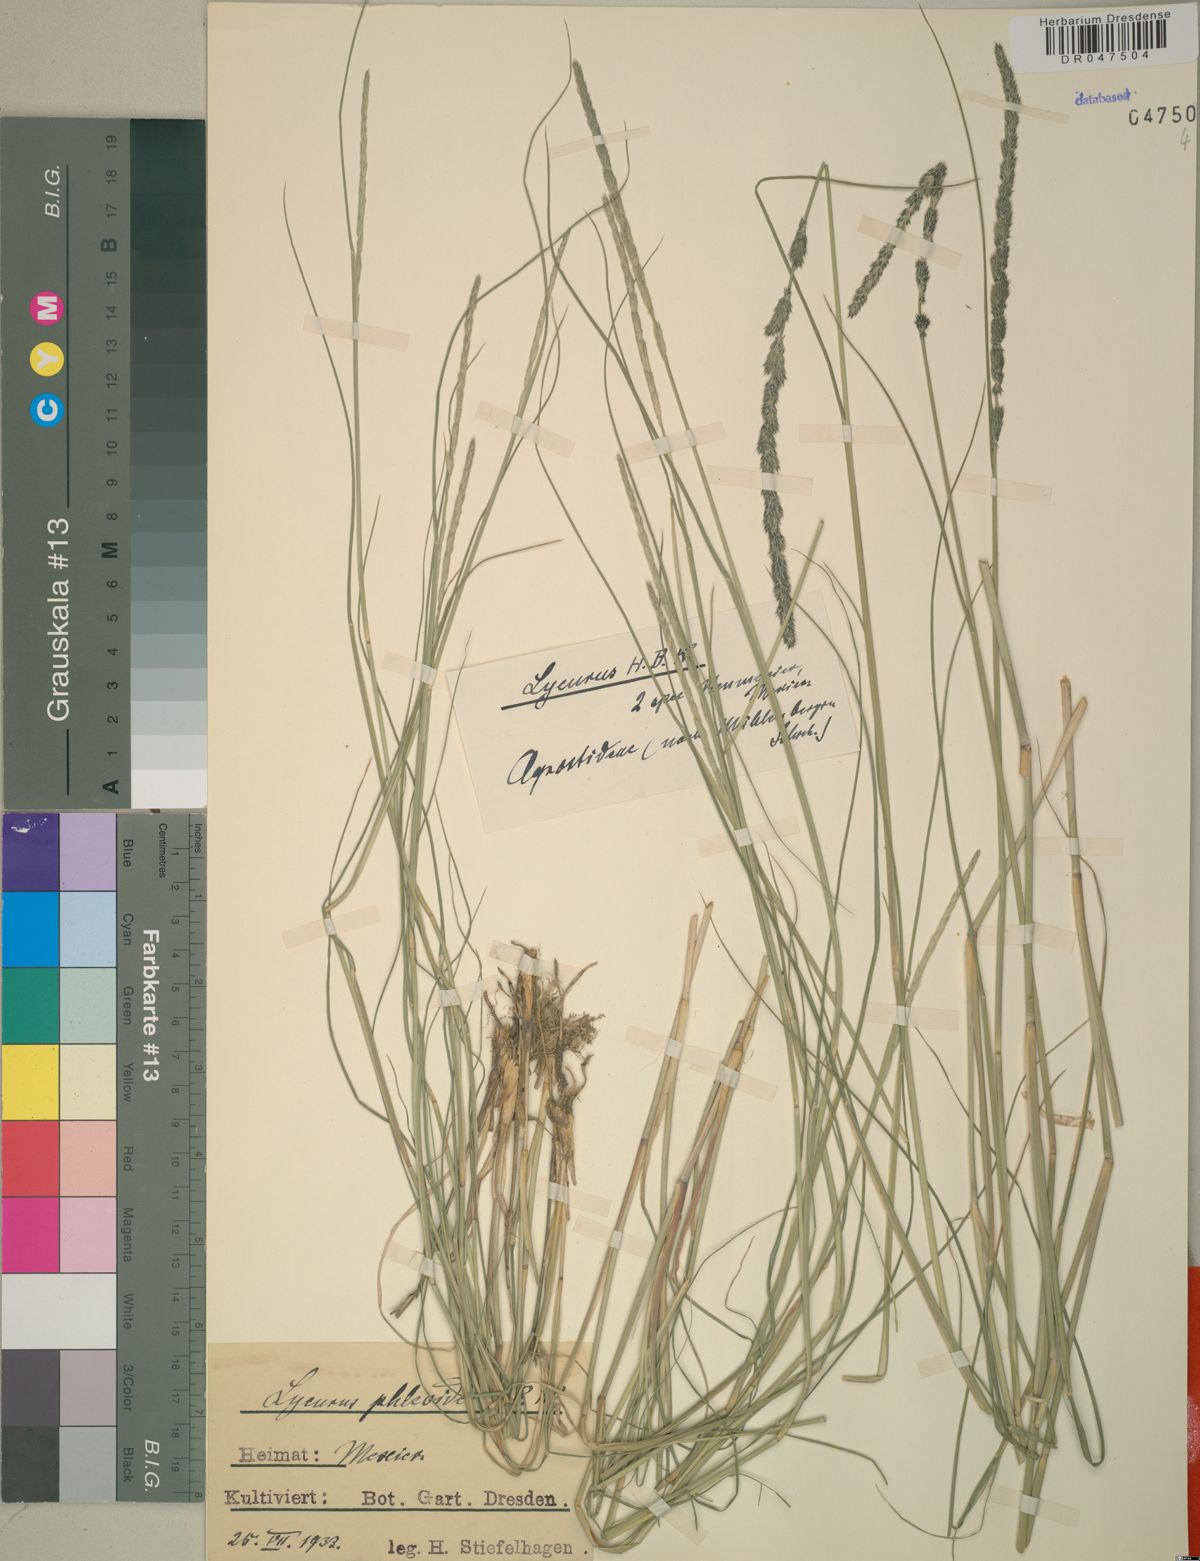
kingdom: Plantae
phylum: Tracheophyta
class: Liliopsida
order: Poales
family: Poaceae
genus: Muhlenbergia
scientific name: Muhlenbergia phleoides
